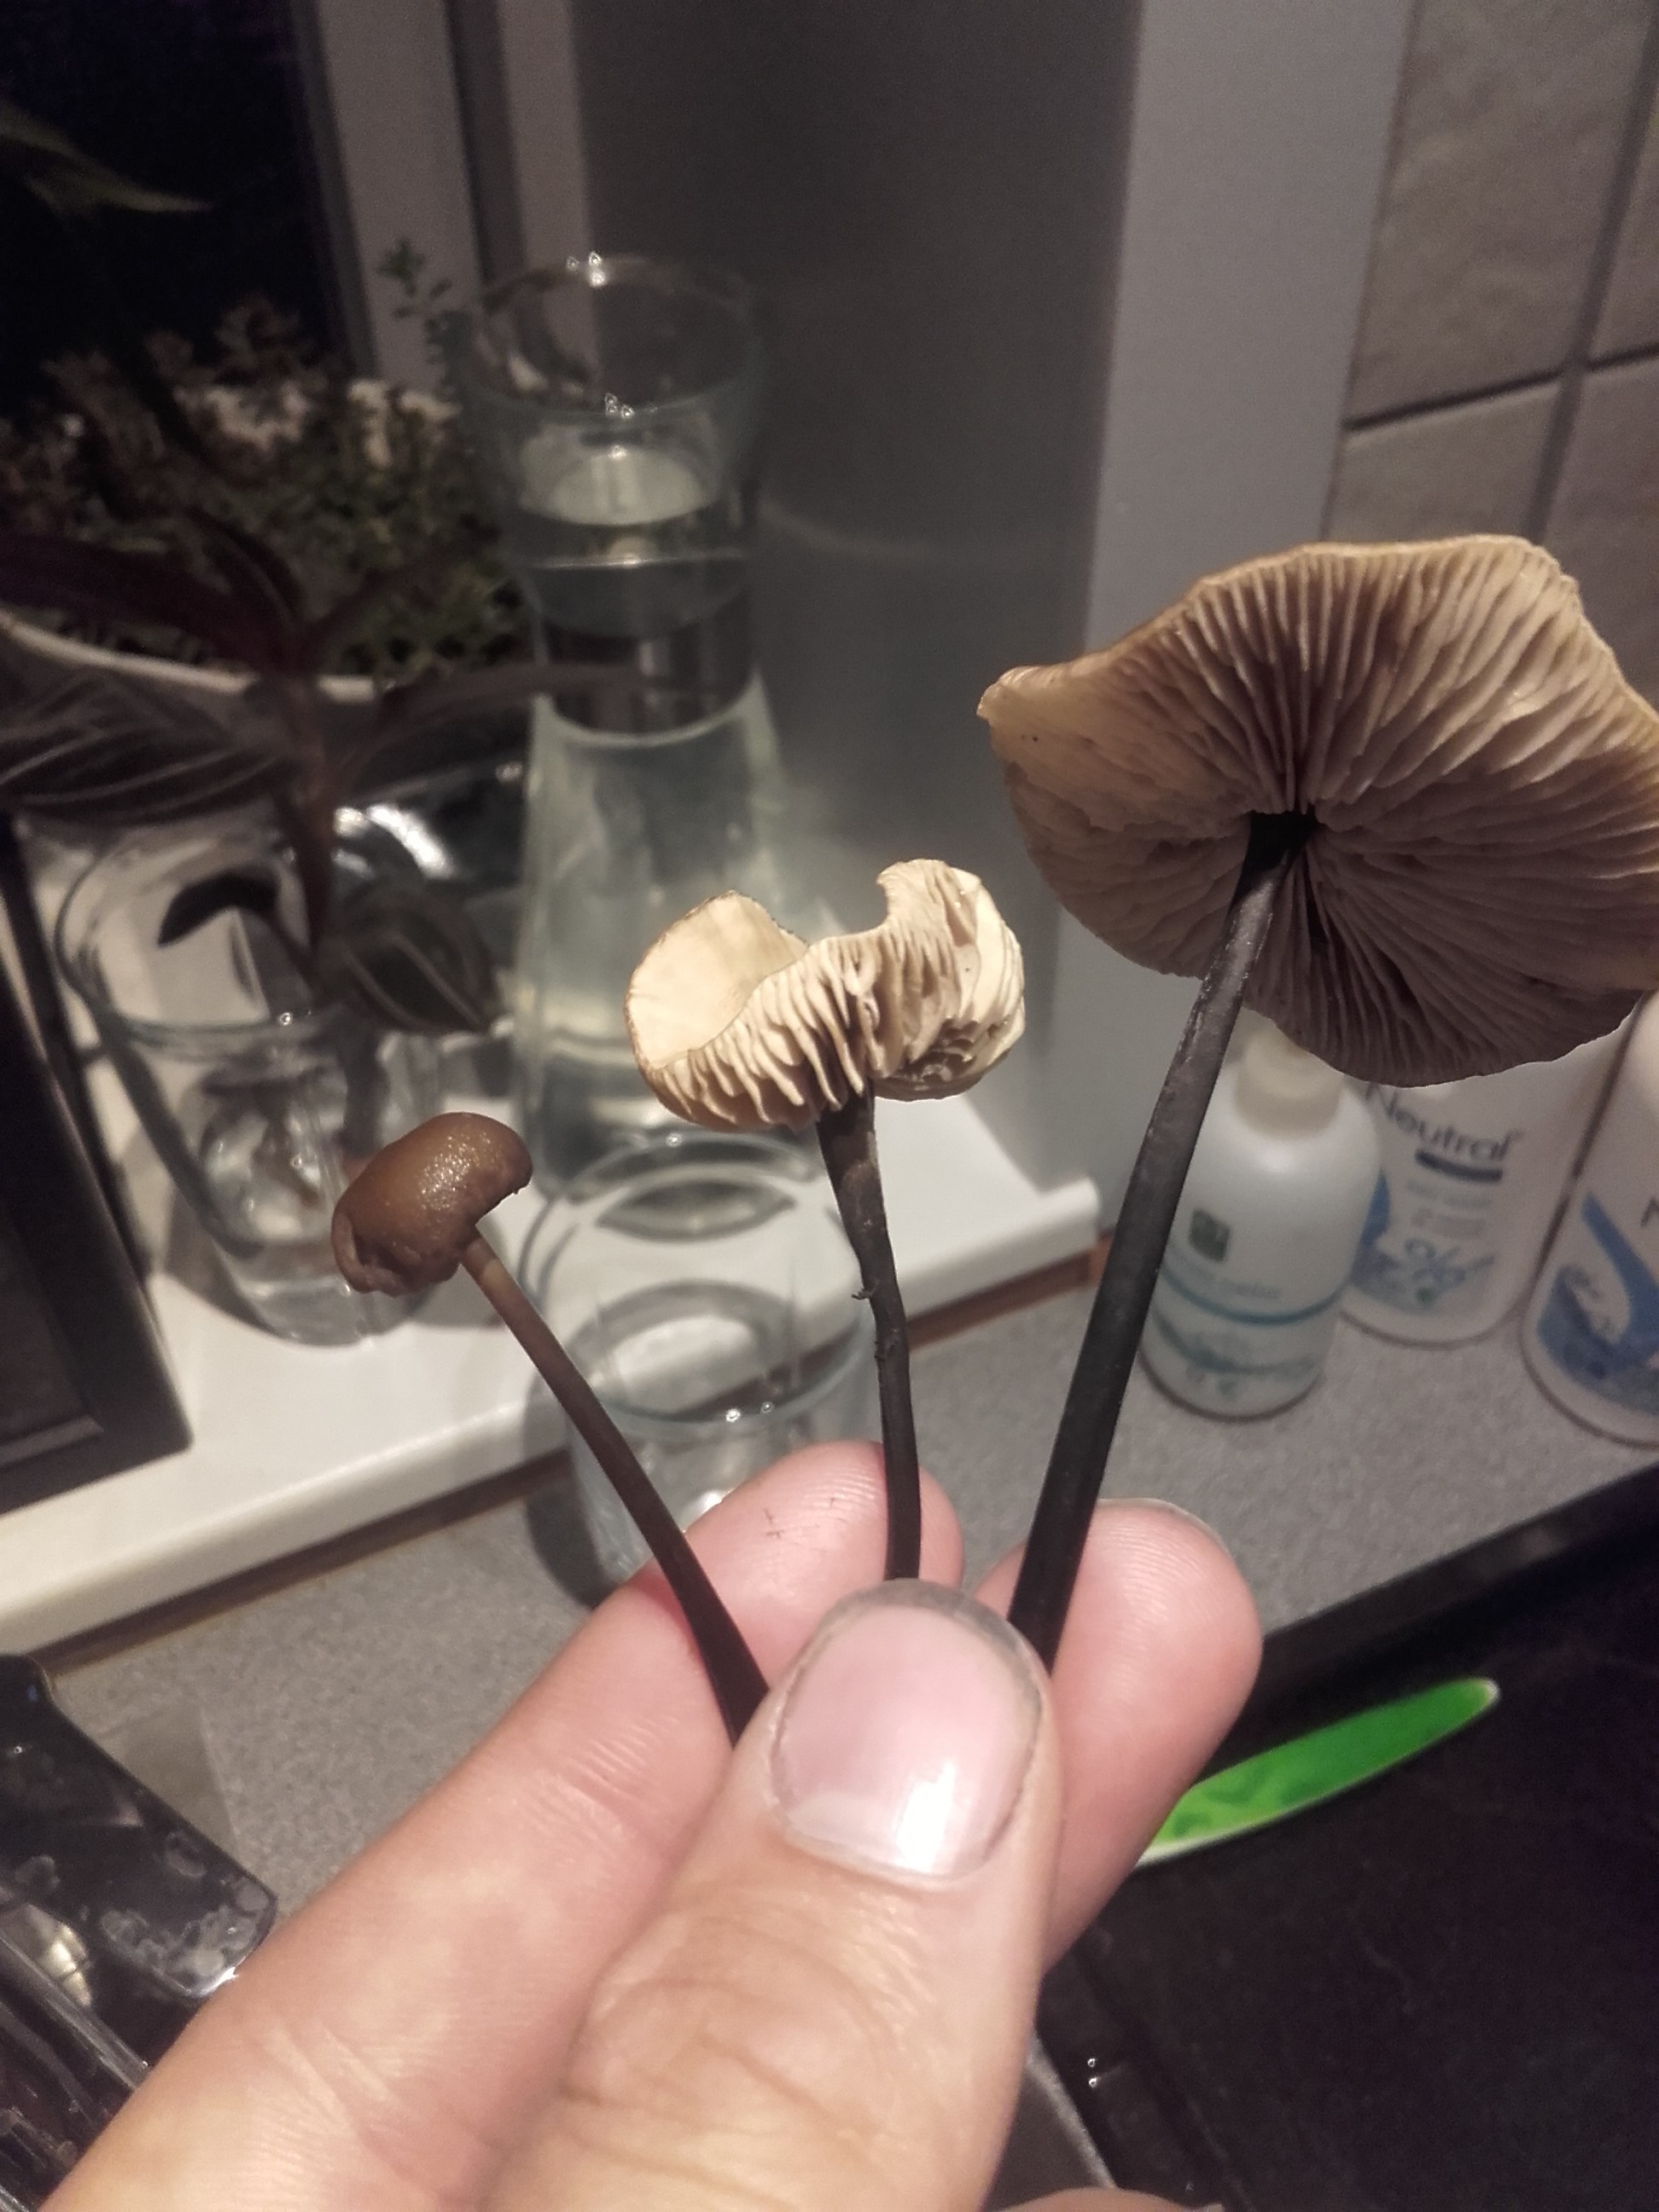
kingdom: Fungi
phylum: Basidiomycota
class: Agaricomycetes
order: Agaricales
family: Omphalotaceae
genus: Mycetinis
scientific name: Mycetinis alliaceus
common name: stor løghat
